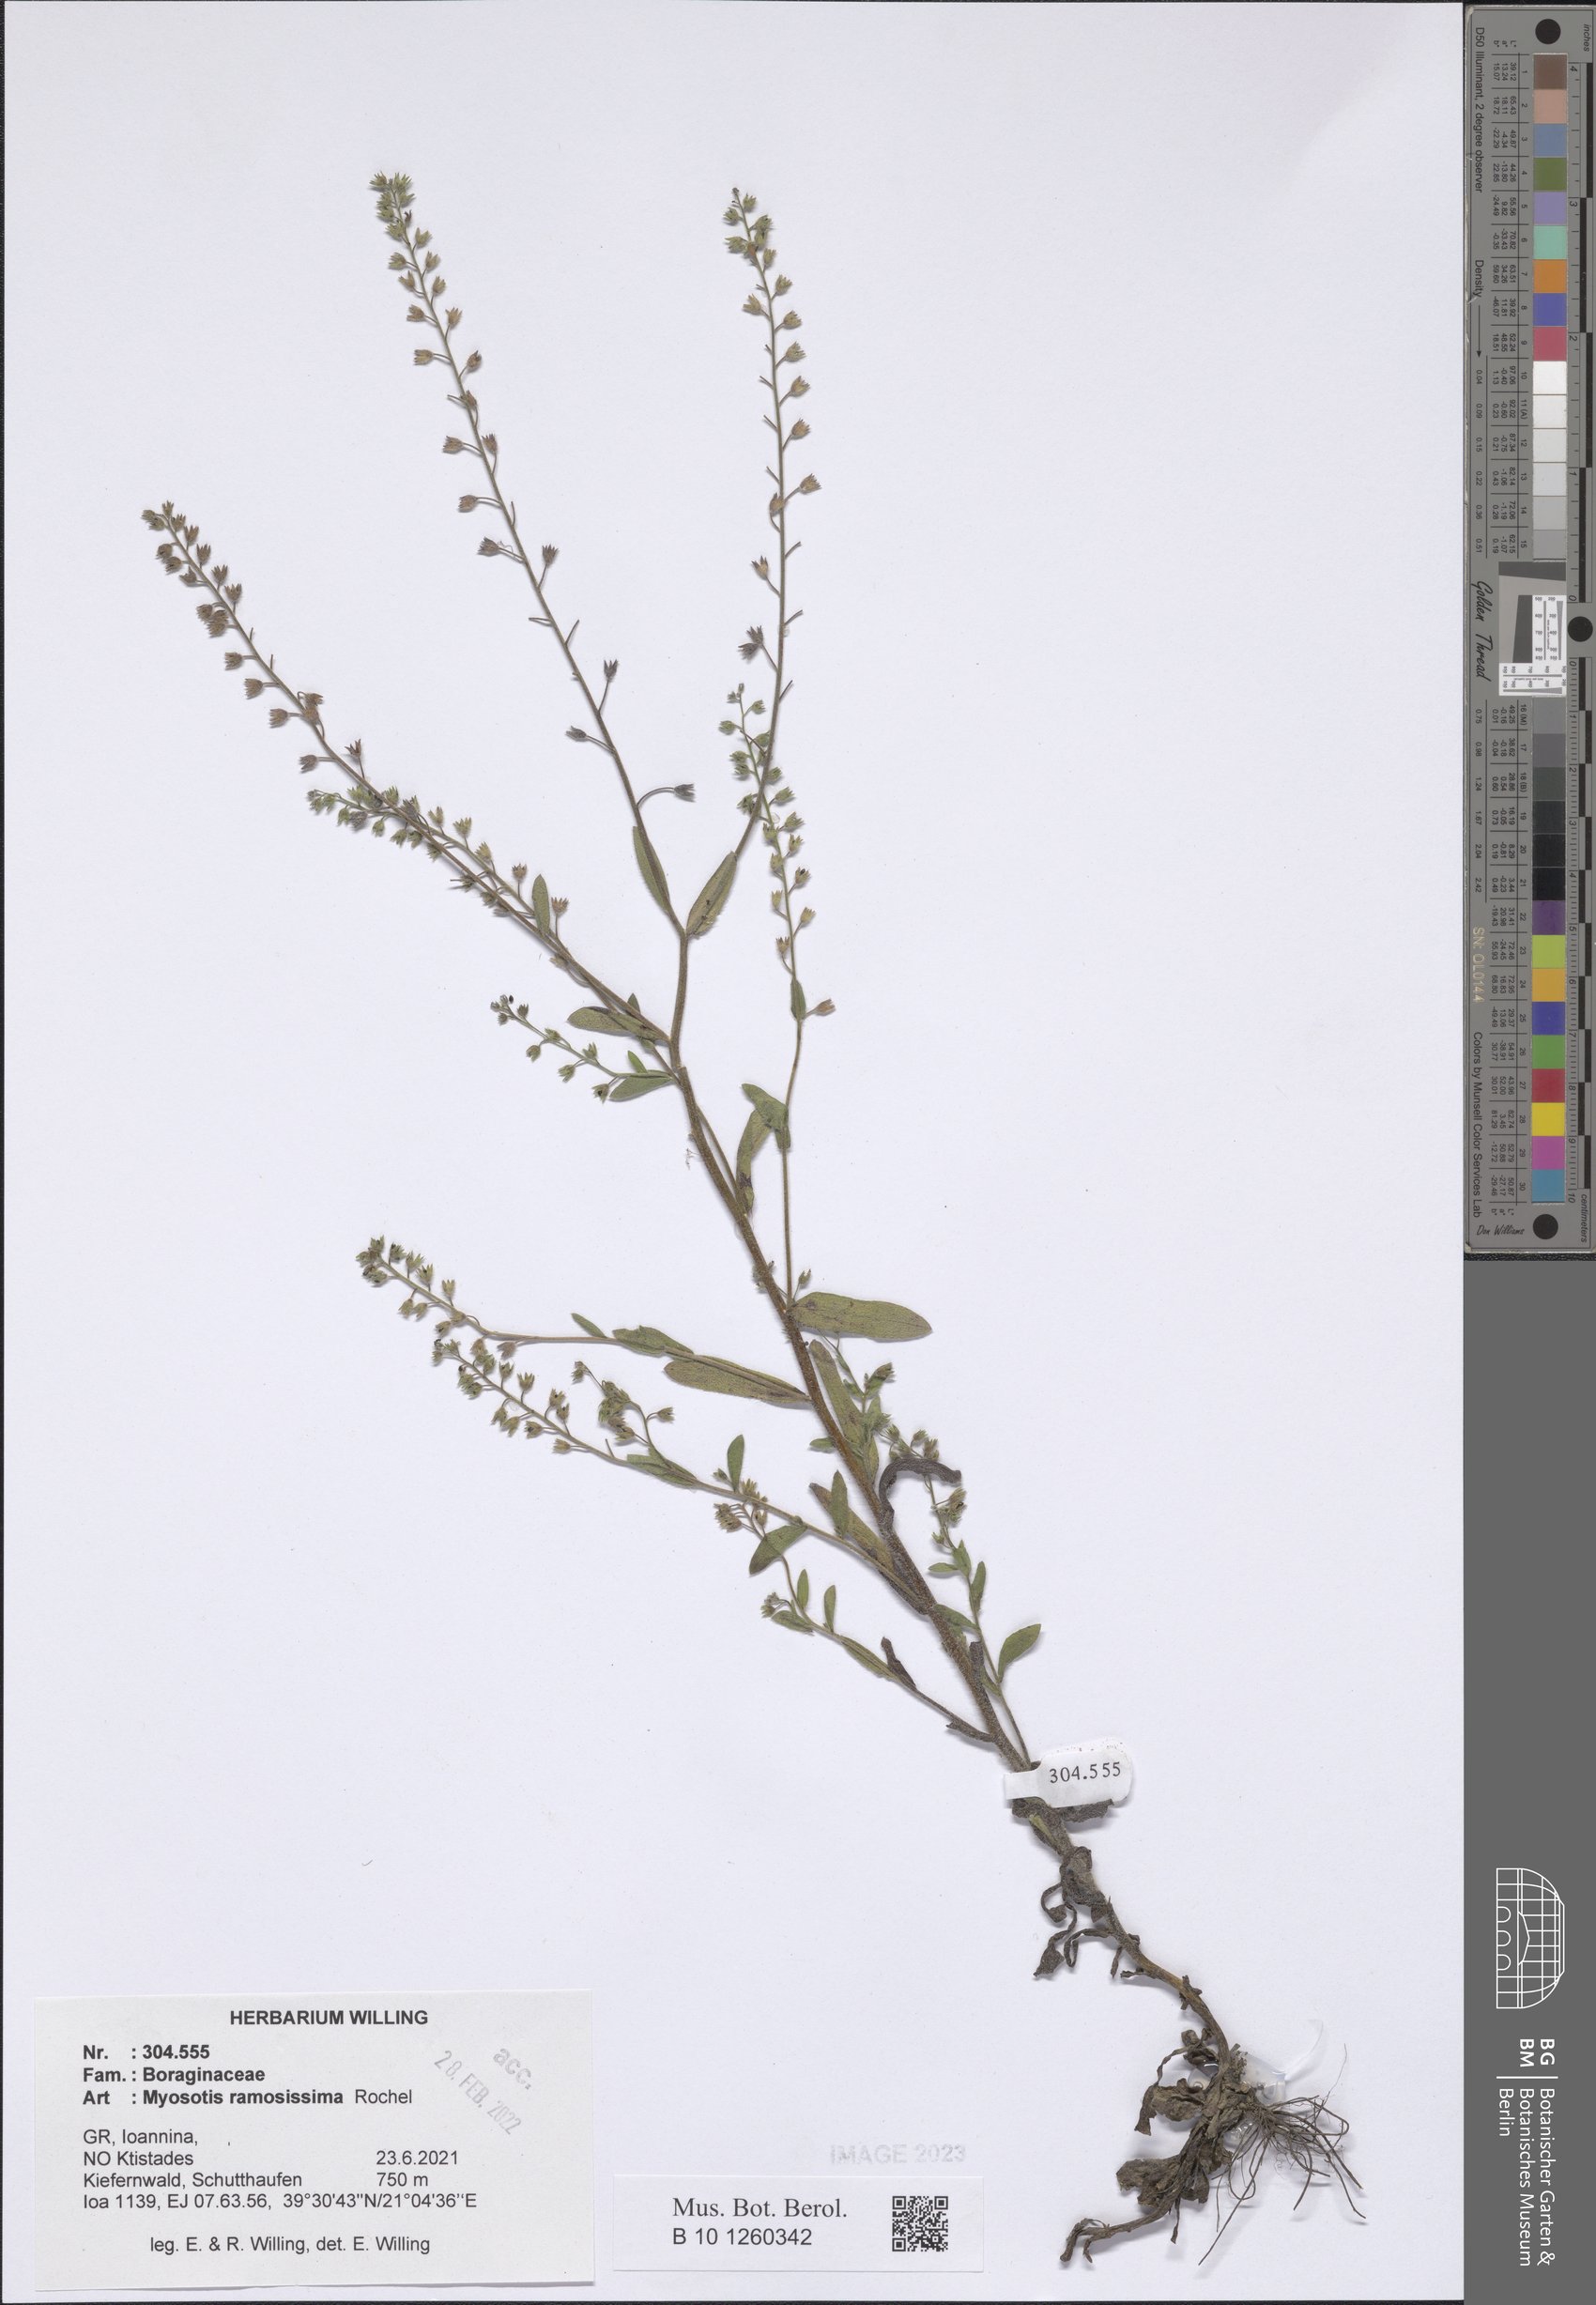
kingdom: Plantae
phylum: Tracheophyta
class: Magnoliopsida
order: Boraginales
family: Boraginaceae
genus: Myosotis
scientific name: Myosotis ramosissima
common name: Early forget-me-not
